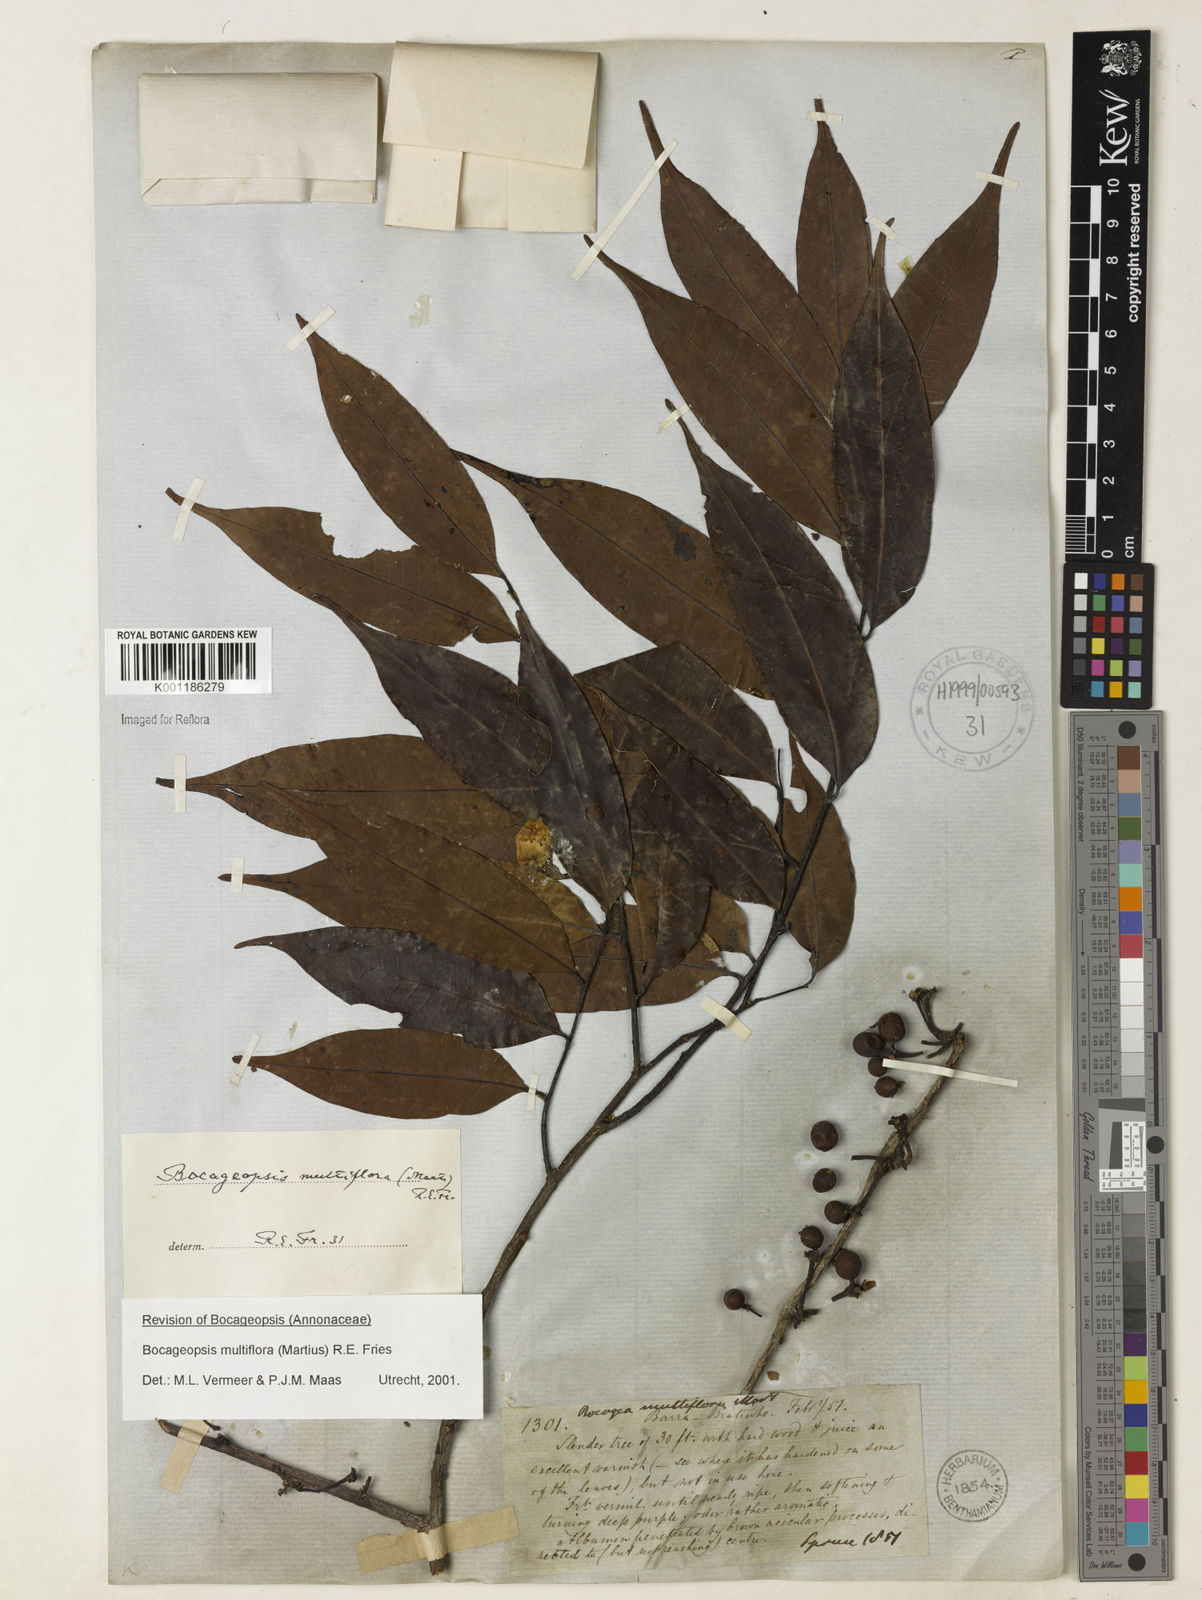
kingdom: Plantae
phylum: Tracheophyta
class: Magnoliopsida
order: Magnoliales
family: Annonaceae
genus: Bocageopsis
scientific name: Bocageopsis multiflora
